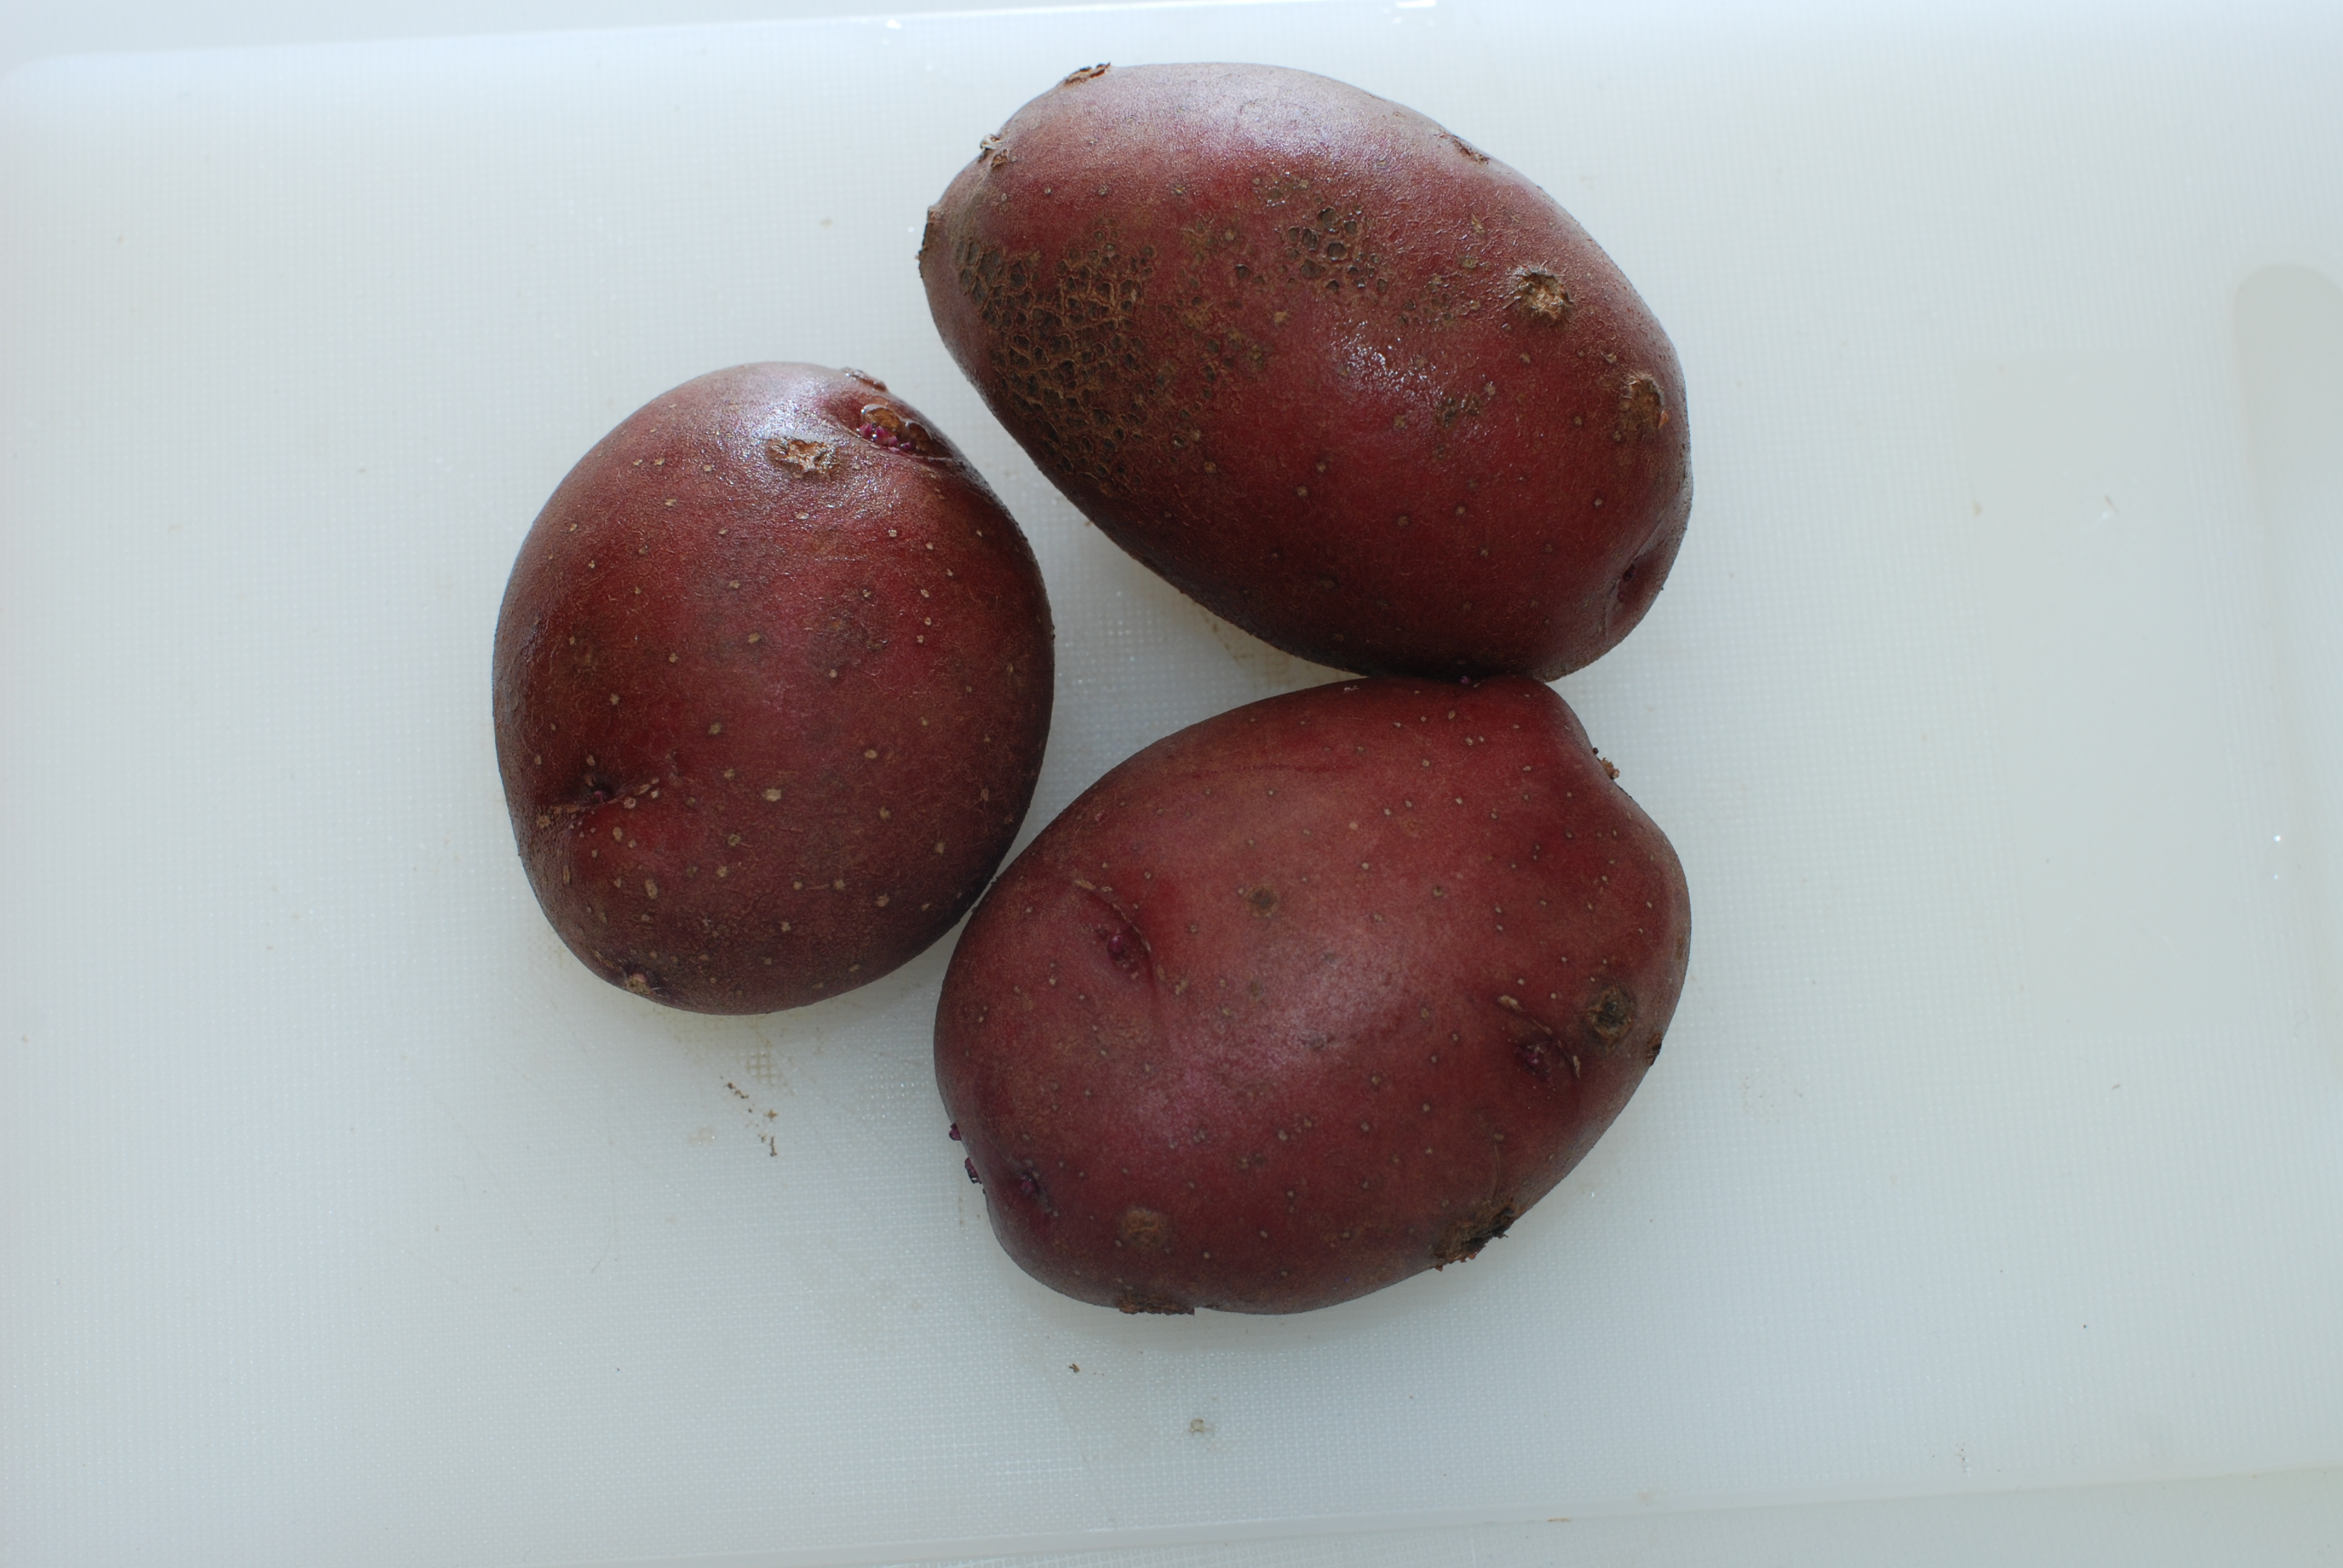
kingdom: Plantae
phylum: Tracheophyta
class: Magnoliopsida
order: Solanales
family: Solanaceae
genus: Solanum
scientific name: Solanum tuberosum
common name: Potato
